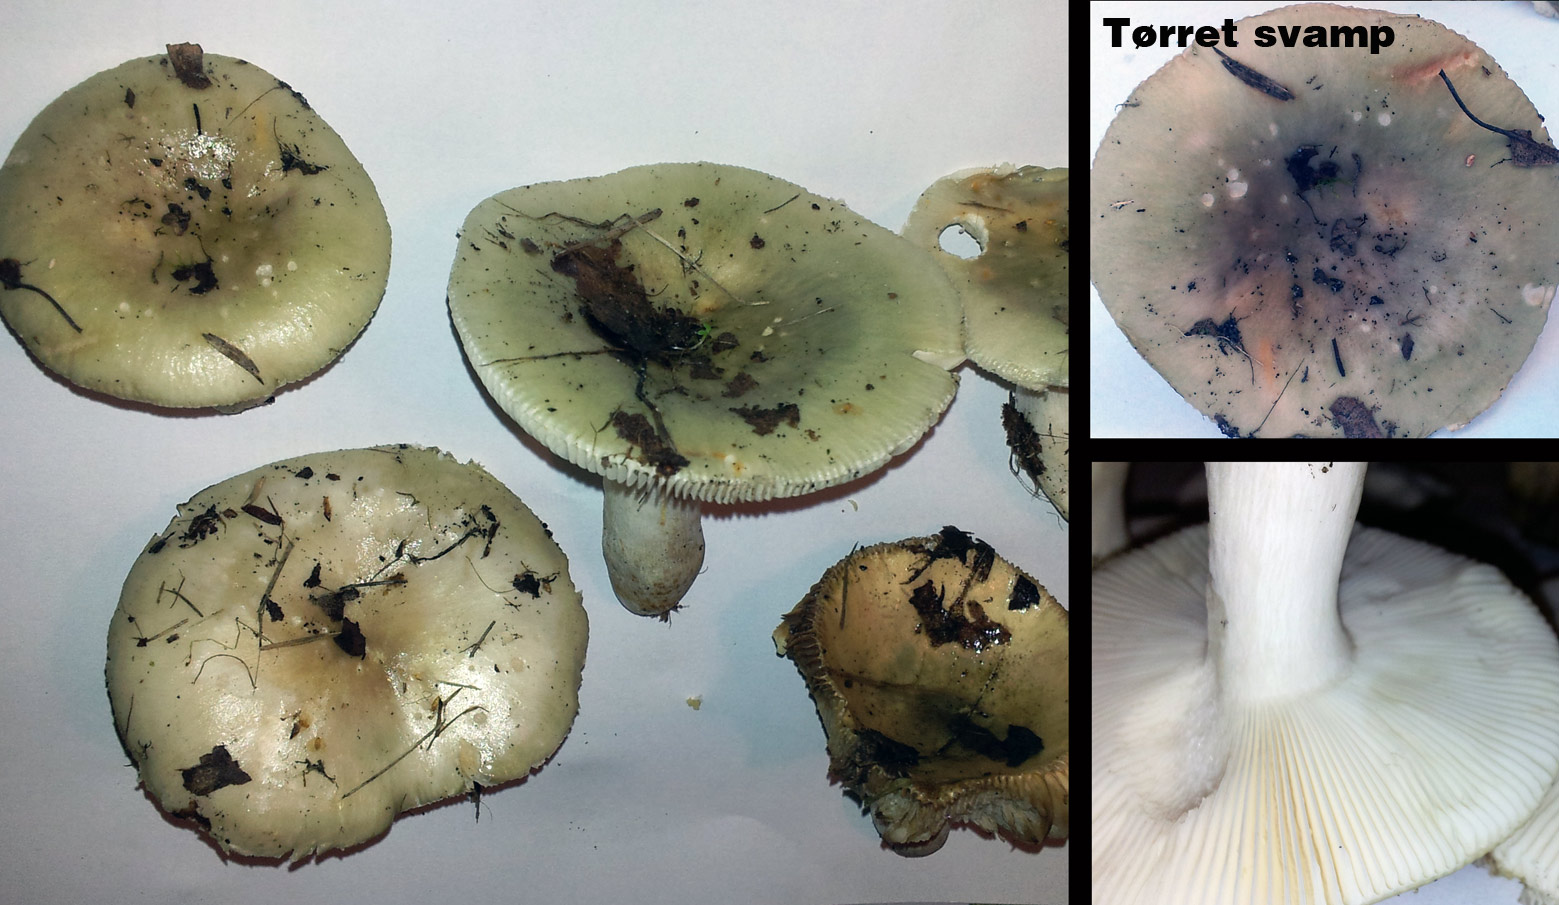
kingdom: Fungi
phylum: Basidiomycota
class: Agaricomycetes
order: Russulales
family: Russulaceae
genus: Russula
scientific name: Russula aeruginea
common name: græsgrøn skørhat
